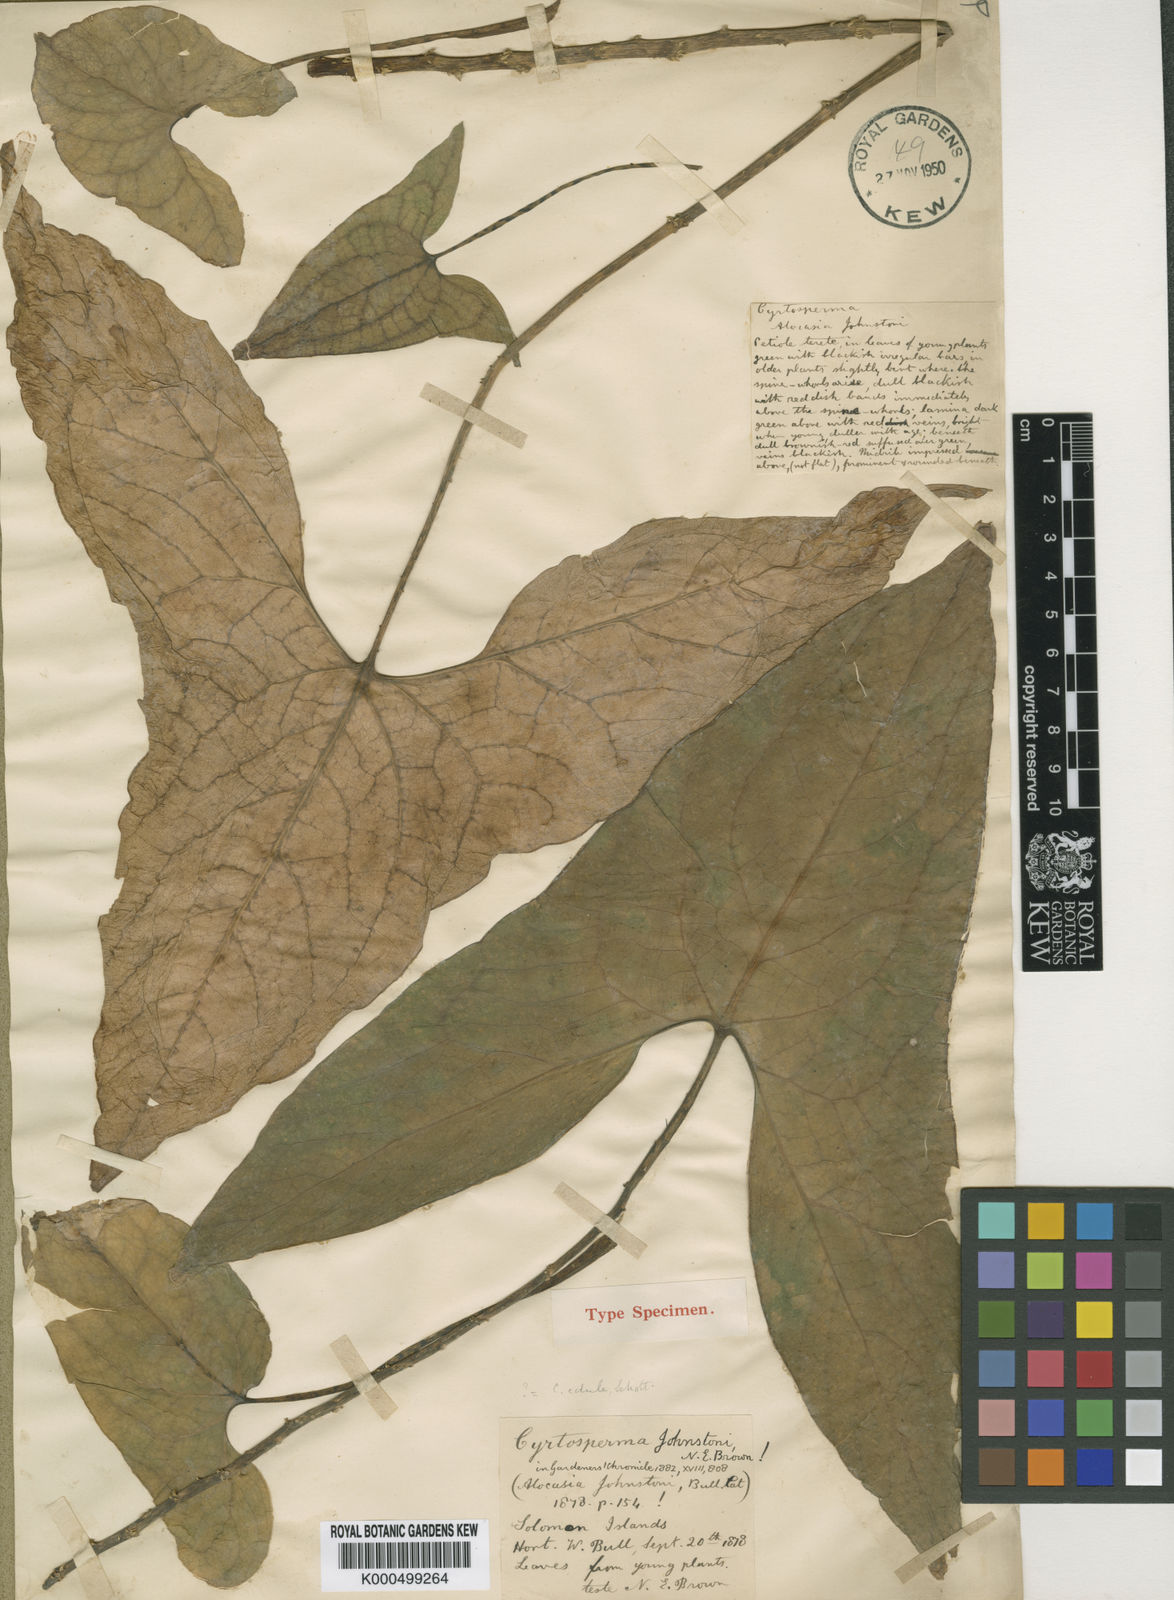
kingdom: Plantae
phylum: Tracheophyta
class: Liliopsida
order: Alismatales
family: Araceae
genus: Cyrtosperma
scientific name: Cyrtosperma johnstonii
